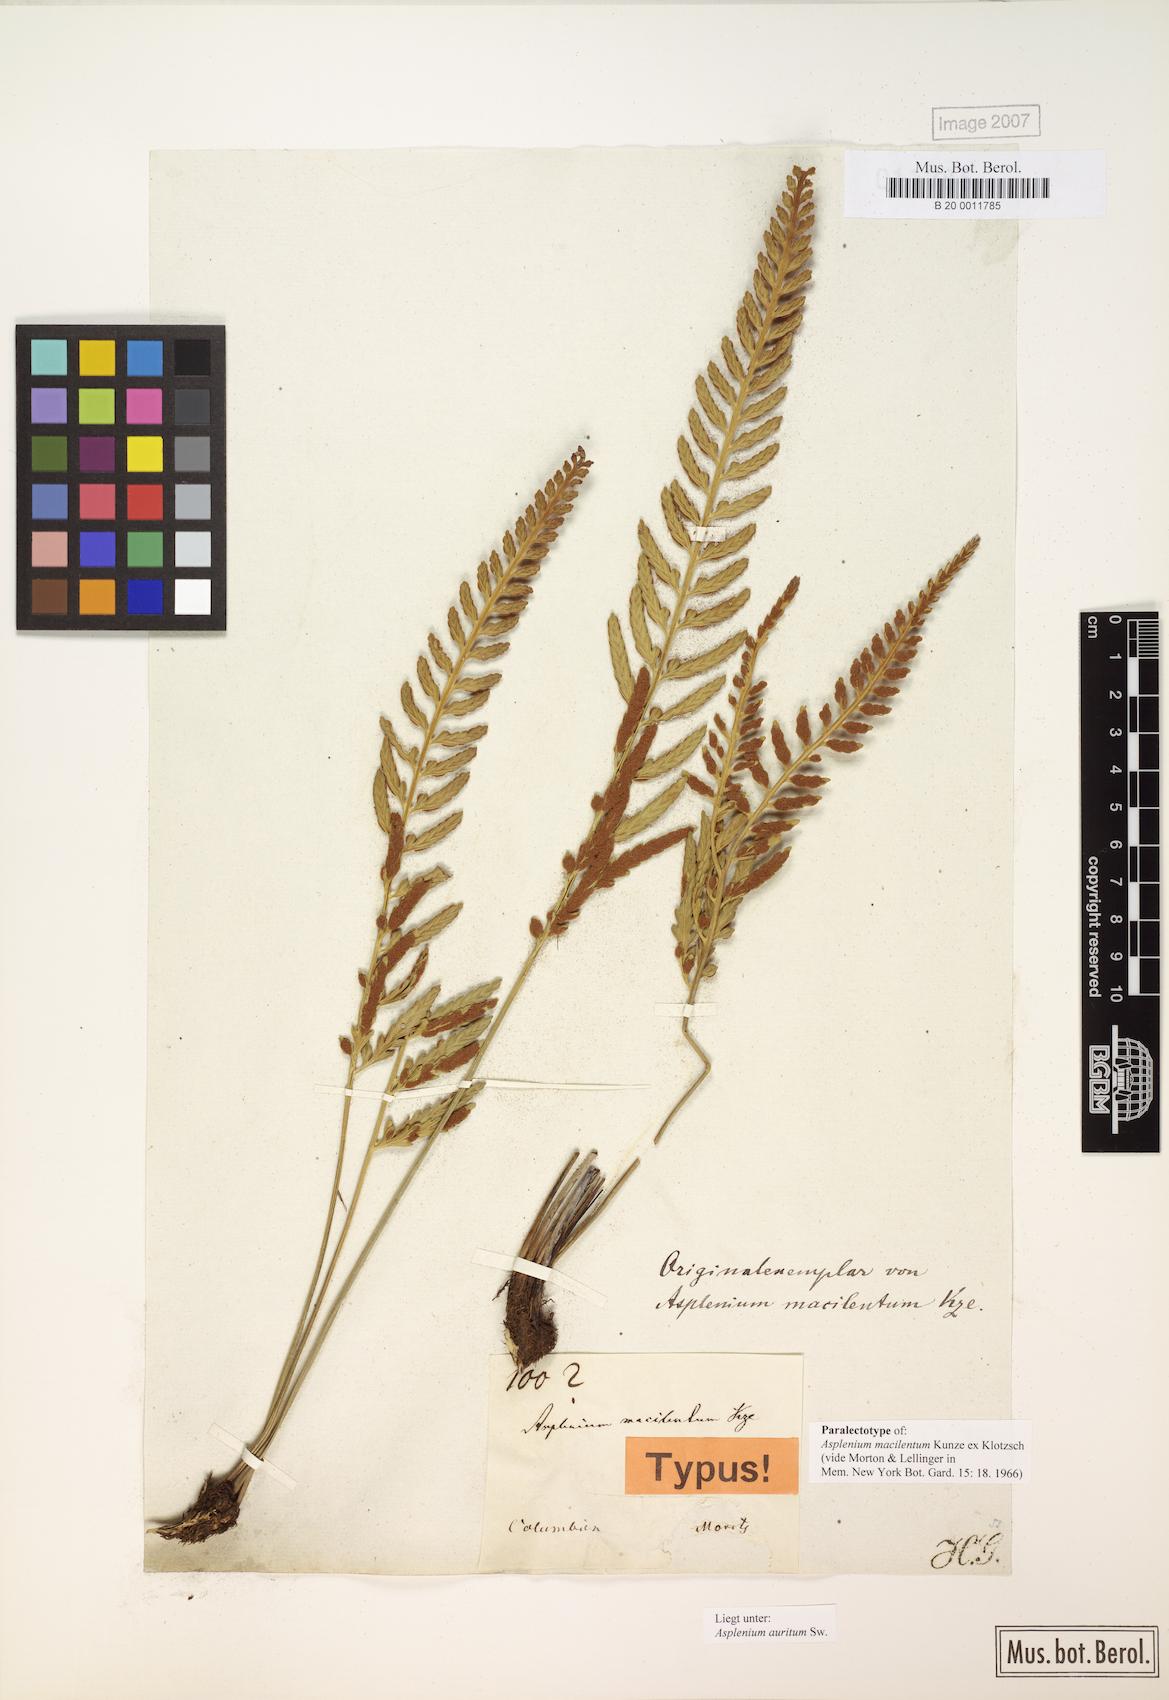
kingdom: Plantae
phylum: Tracheophyta
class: Polypodiopsida
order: Polypodiales
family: Aspleniaceae
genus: Asplenium
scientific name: Asplenium auritum
